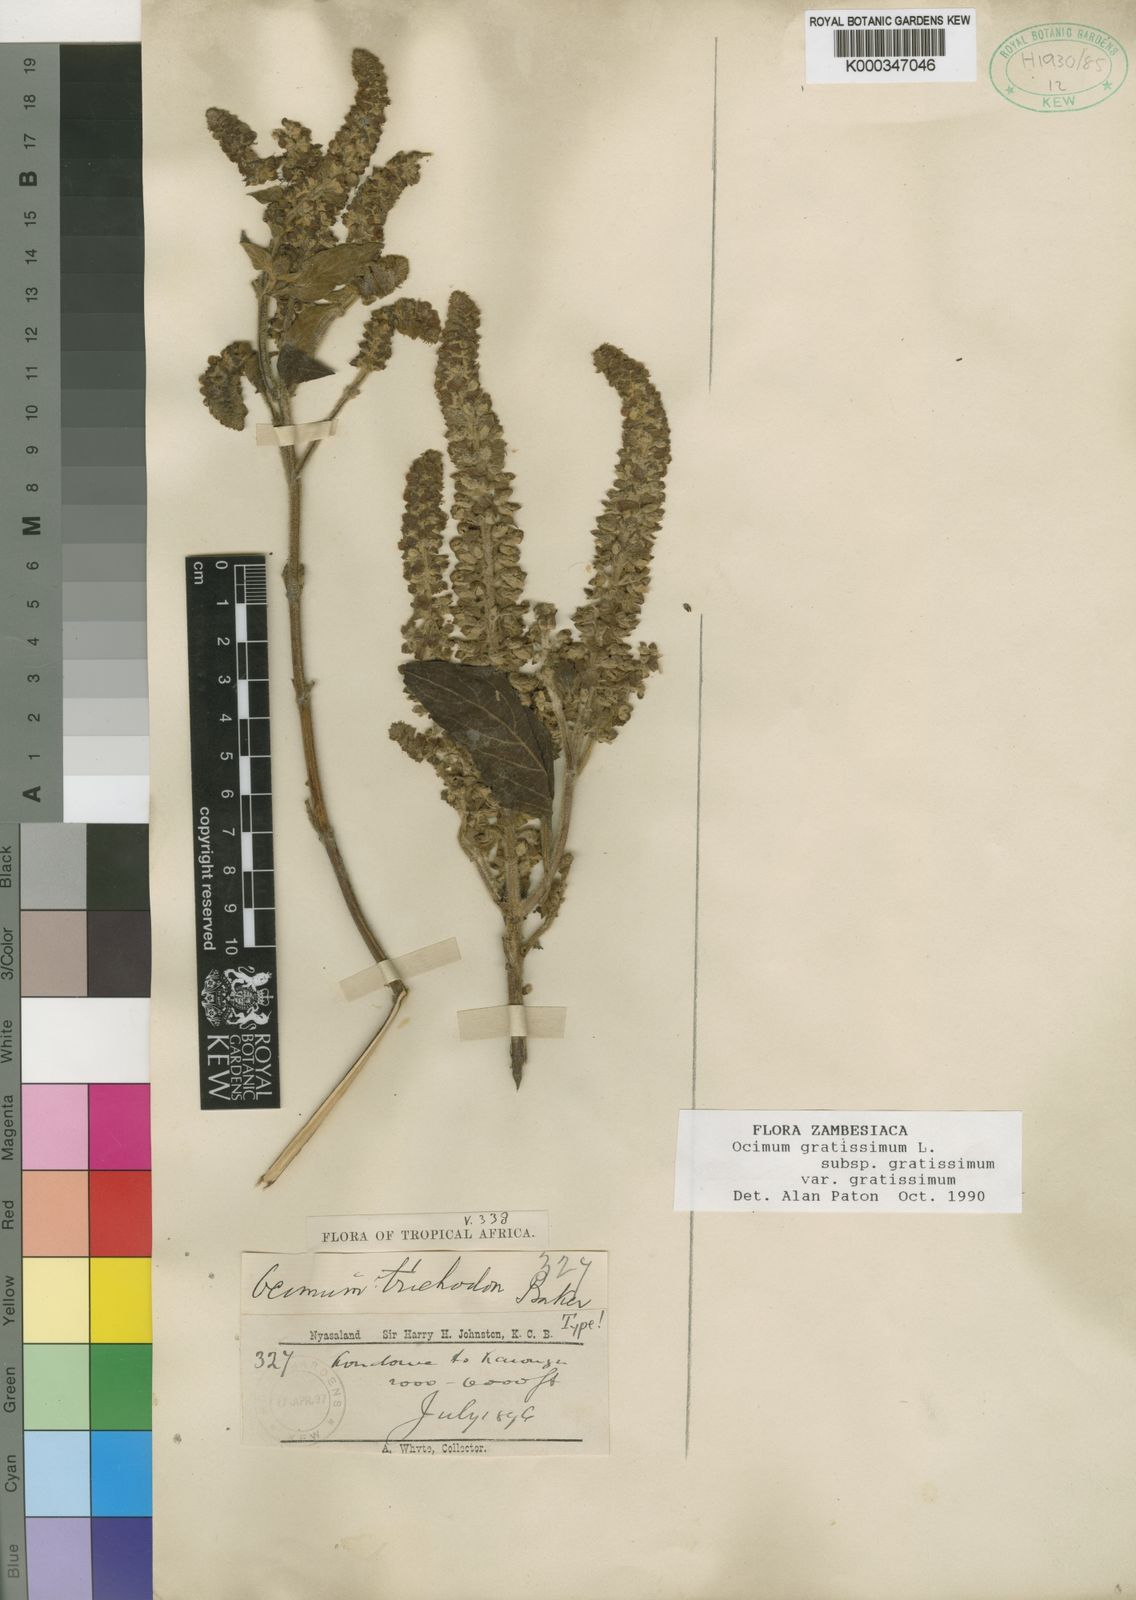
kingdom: Plantae
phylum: Tracheophyta
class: Magnoliopsida
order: Lamiales
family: Lamiaceae
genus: Ocimum
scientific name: Ocimum gratissimum
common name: African basil
